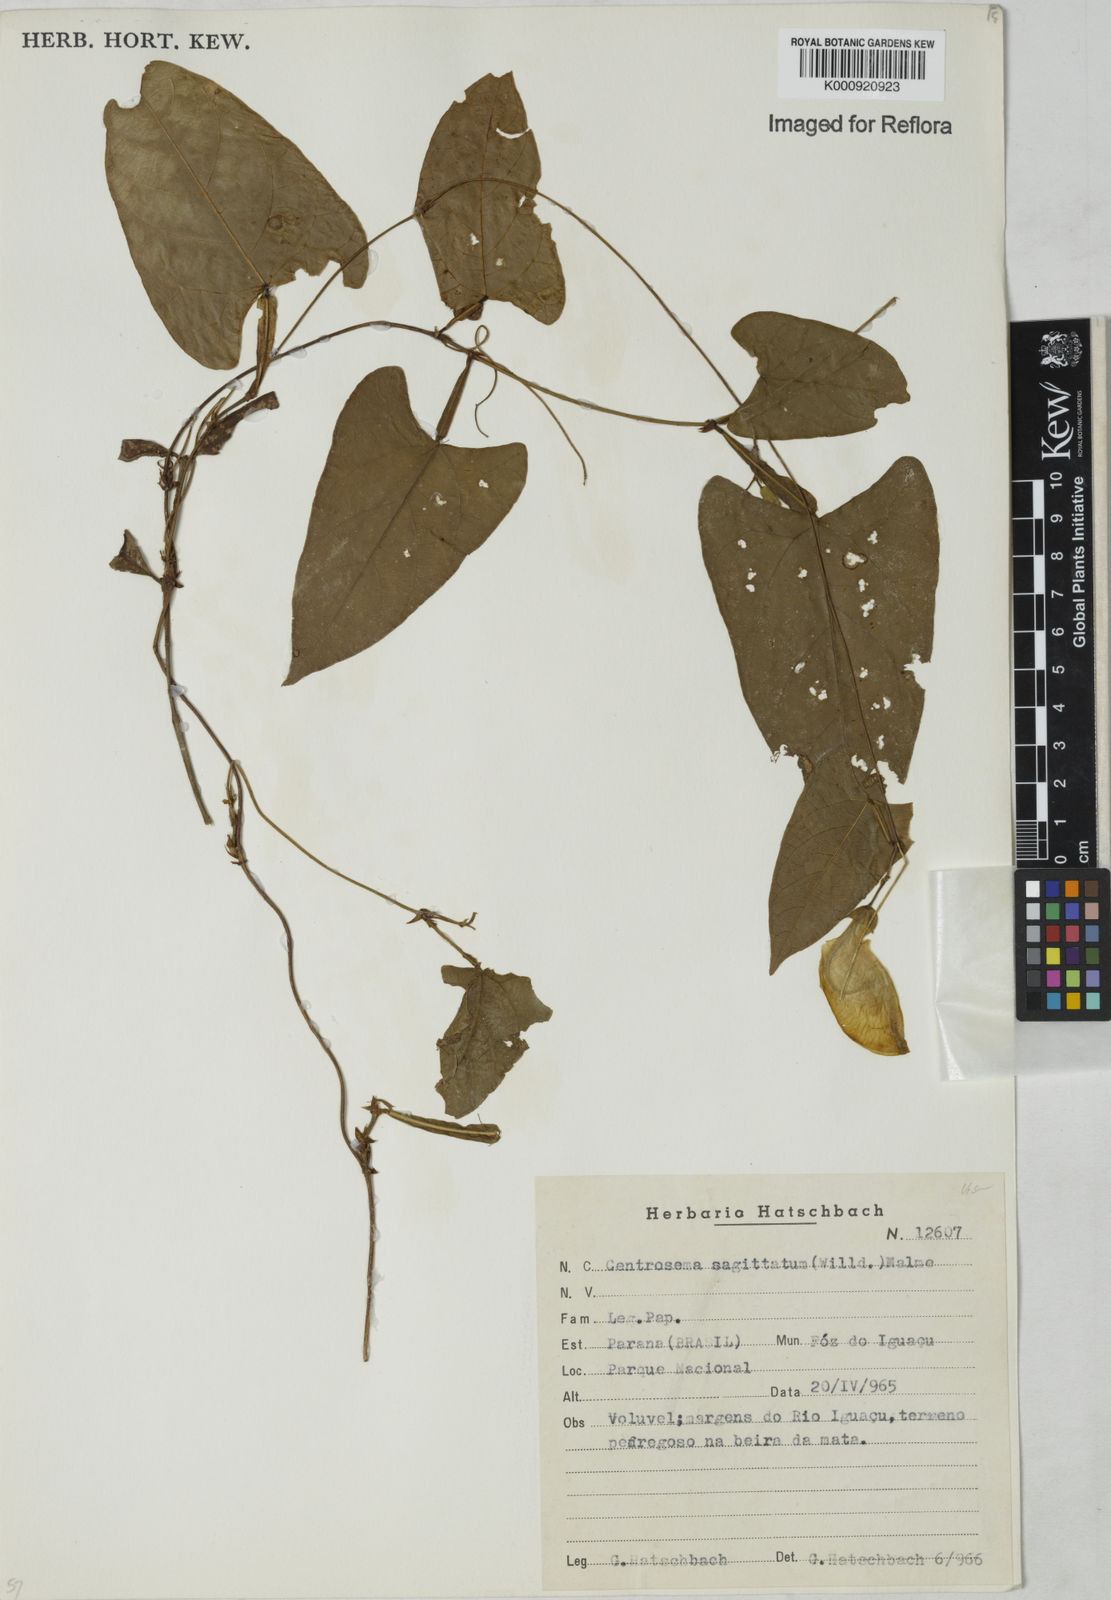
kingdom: Plantae
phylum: Tracheophyta
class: Magnoliopsida
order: Fabales
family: Fabaceae
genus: Centrosema
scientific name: Centrosema sagittatum
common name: Arrowleaf butterfly pea
